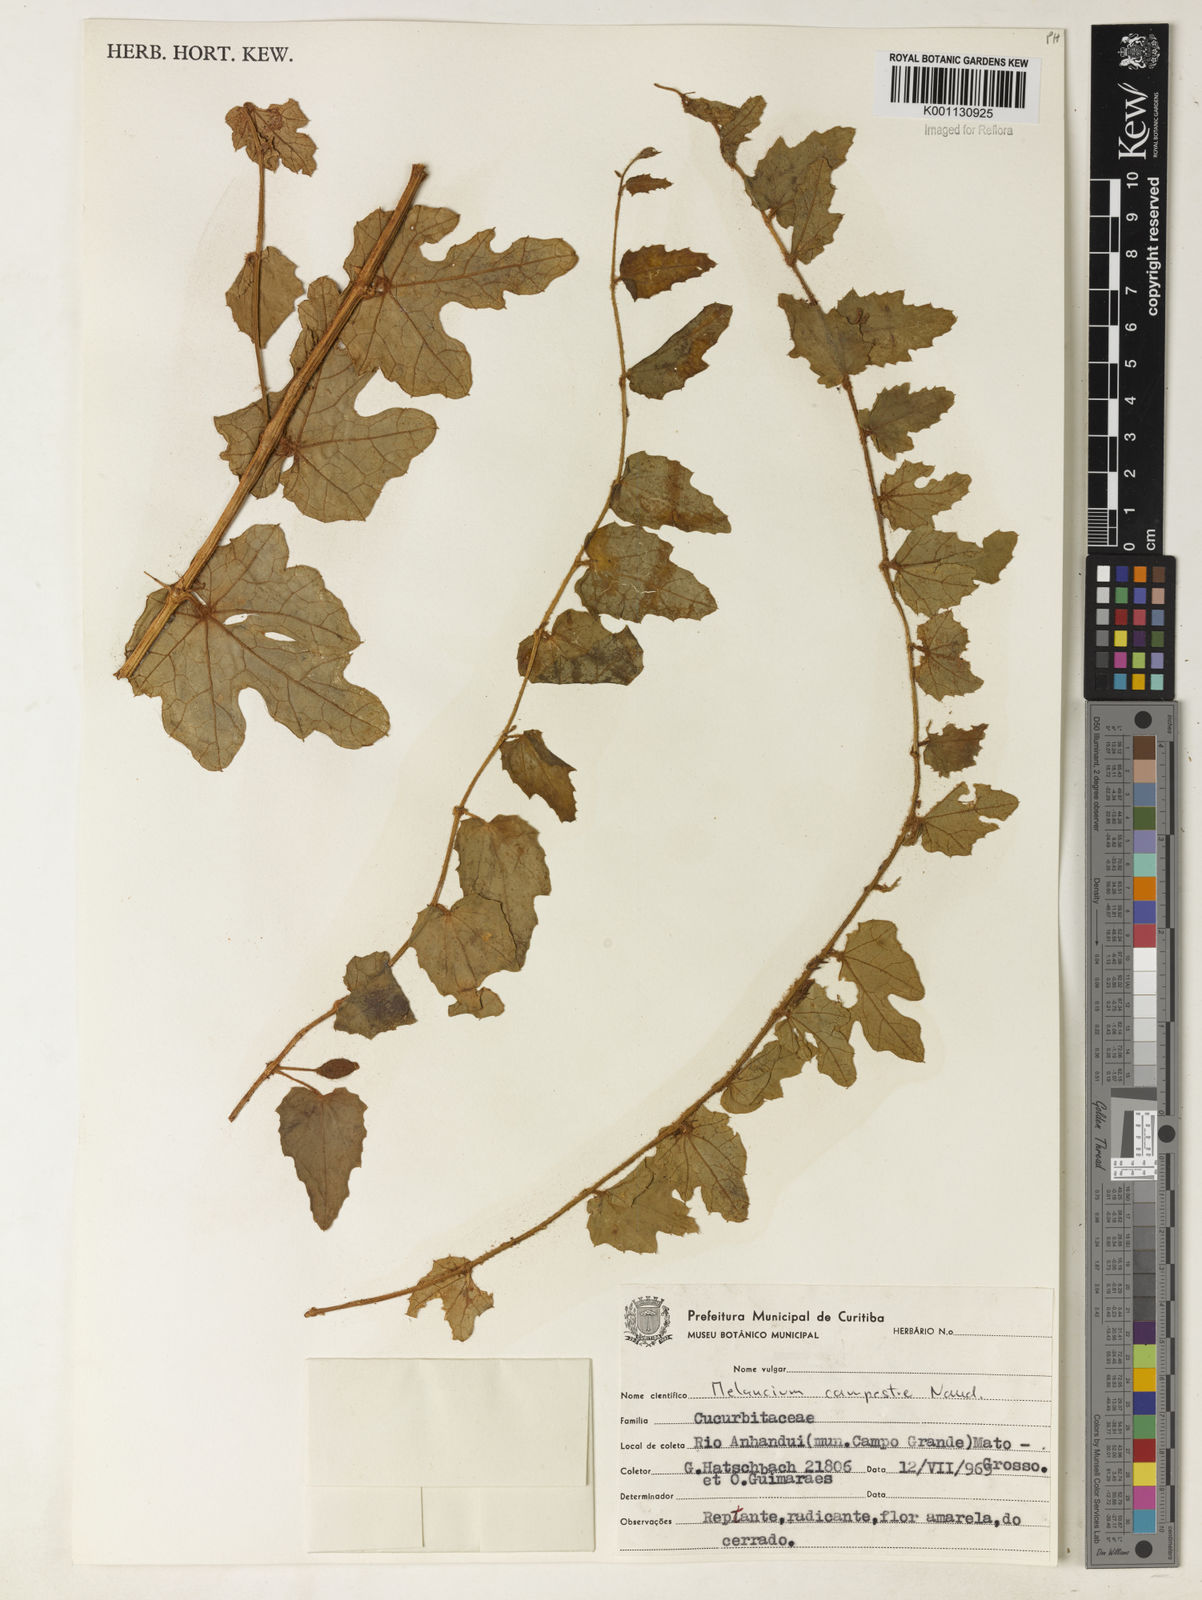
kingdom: Plantae
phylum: Tracheophyta
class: Magnoliopsida
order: Cucurbitales
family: Cucurbitaceae
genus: Melothria
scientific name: Melothria campestris
